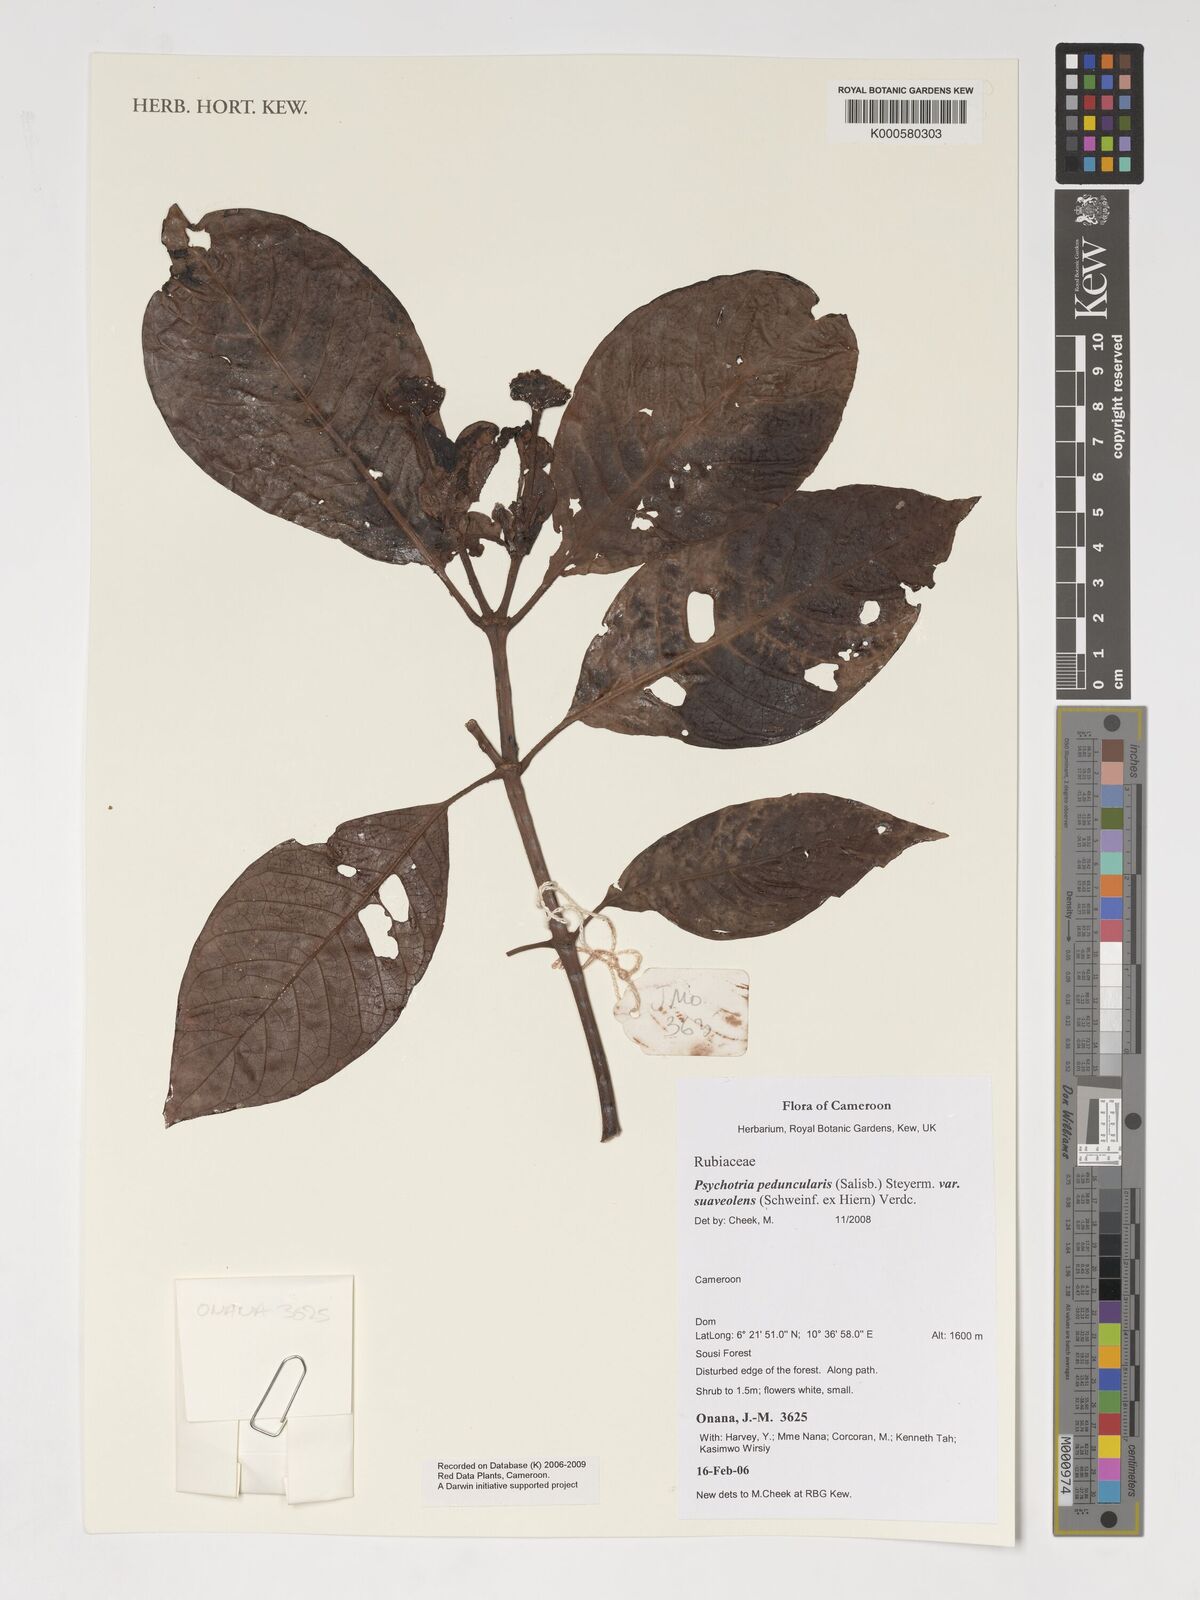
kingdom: Plantae
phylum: Tracheophyta
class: Magnoliopsida
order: Gentianales
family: Rubiaceae
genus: Psychotria
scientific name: Psychotria peduncularis
